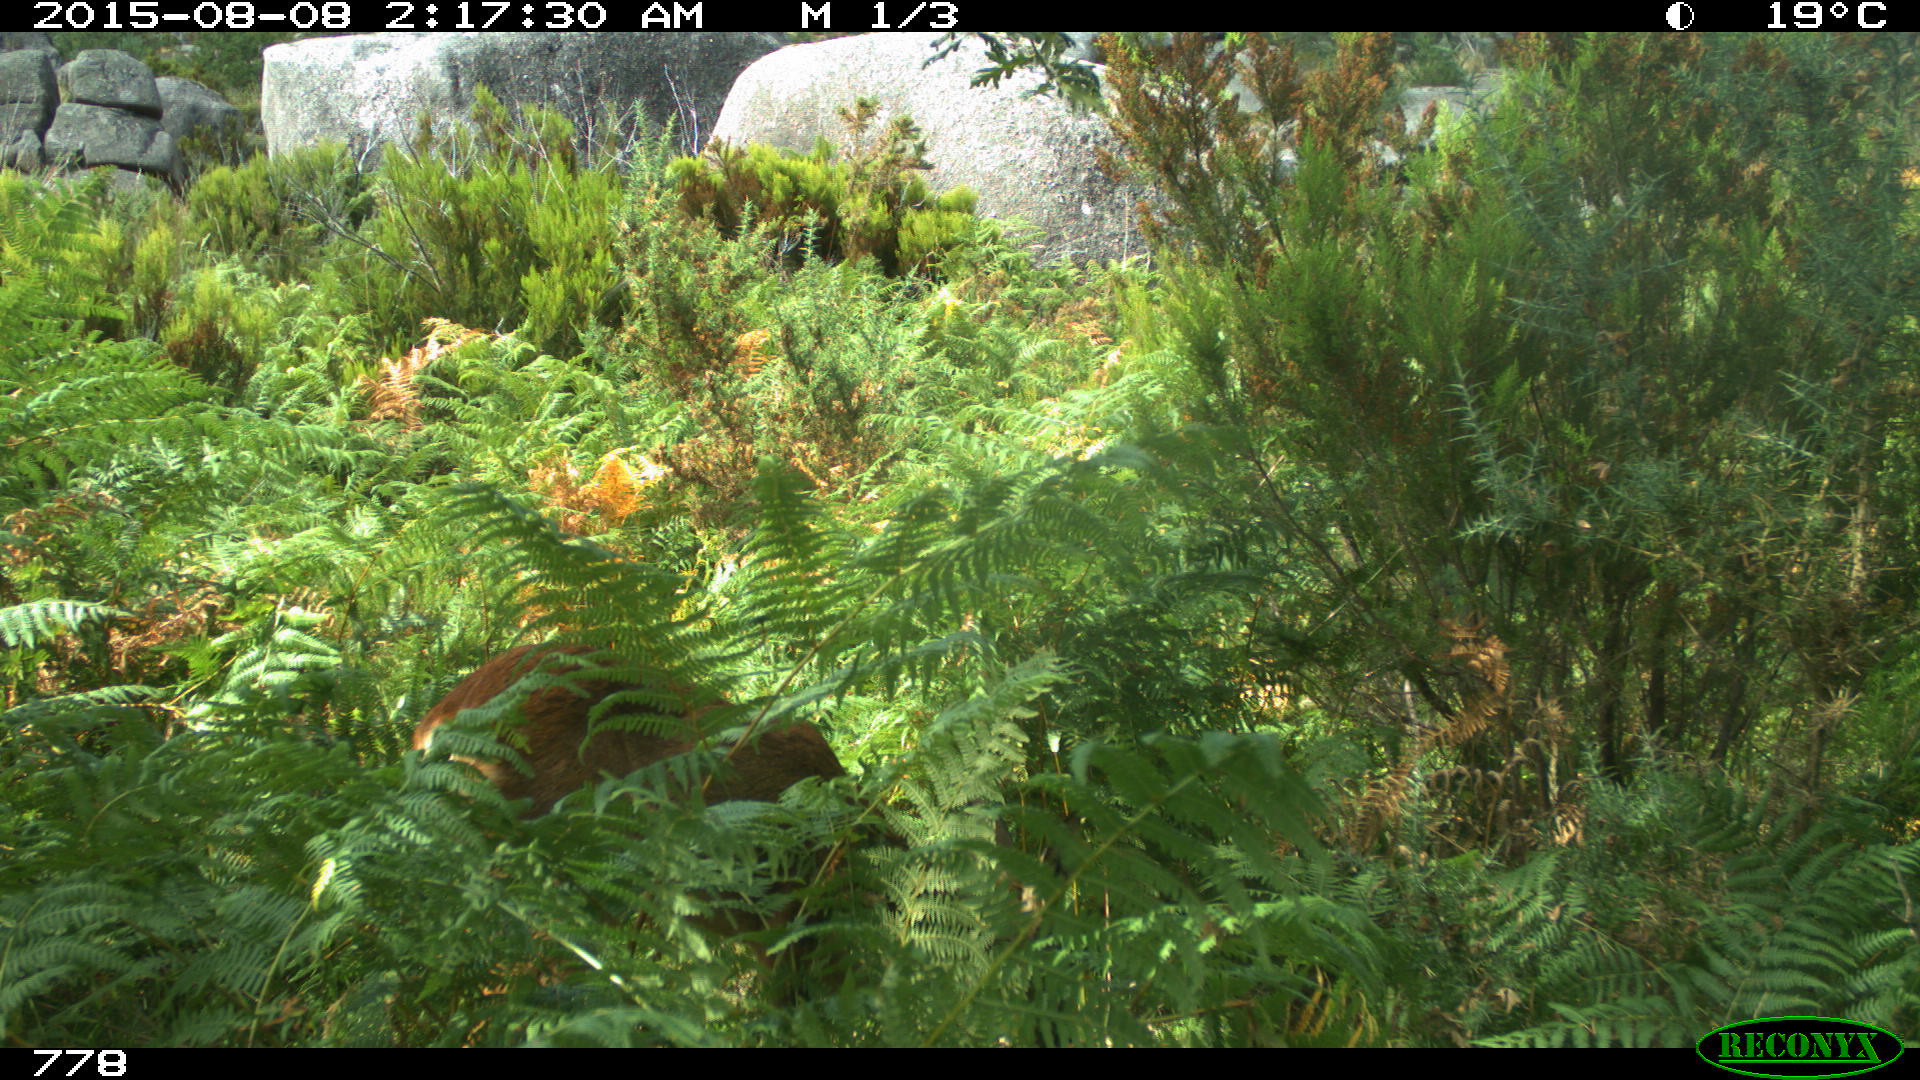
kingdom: Animalia
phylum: Chordata
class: Mammalia
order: Artiodactyla
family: Cervidae
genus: Capreolus
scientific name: Capreolus capreolus
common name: Western roe deer
